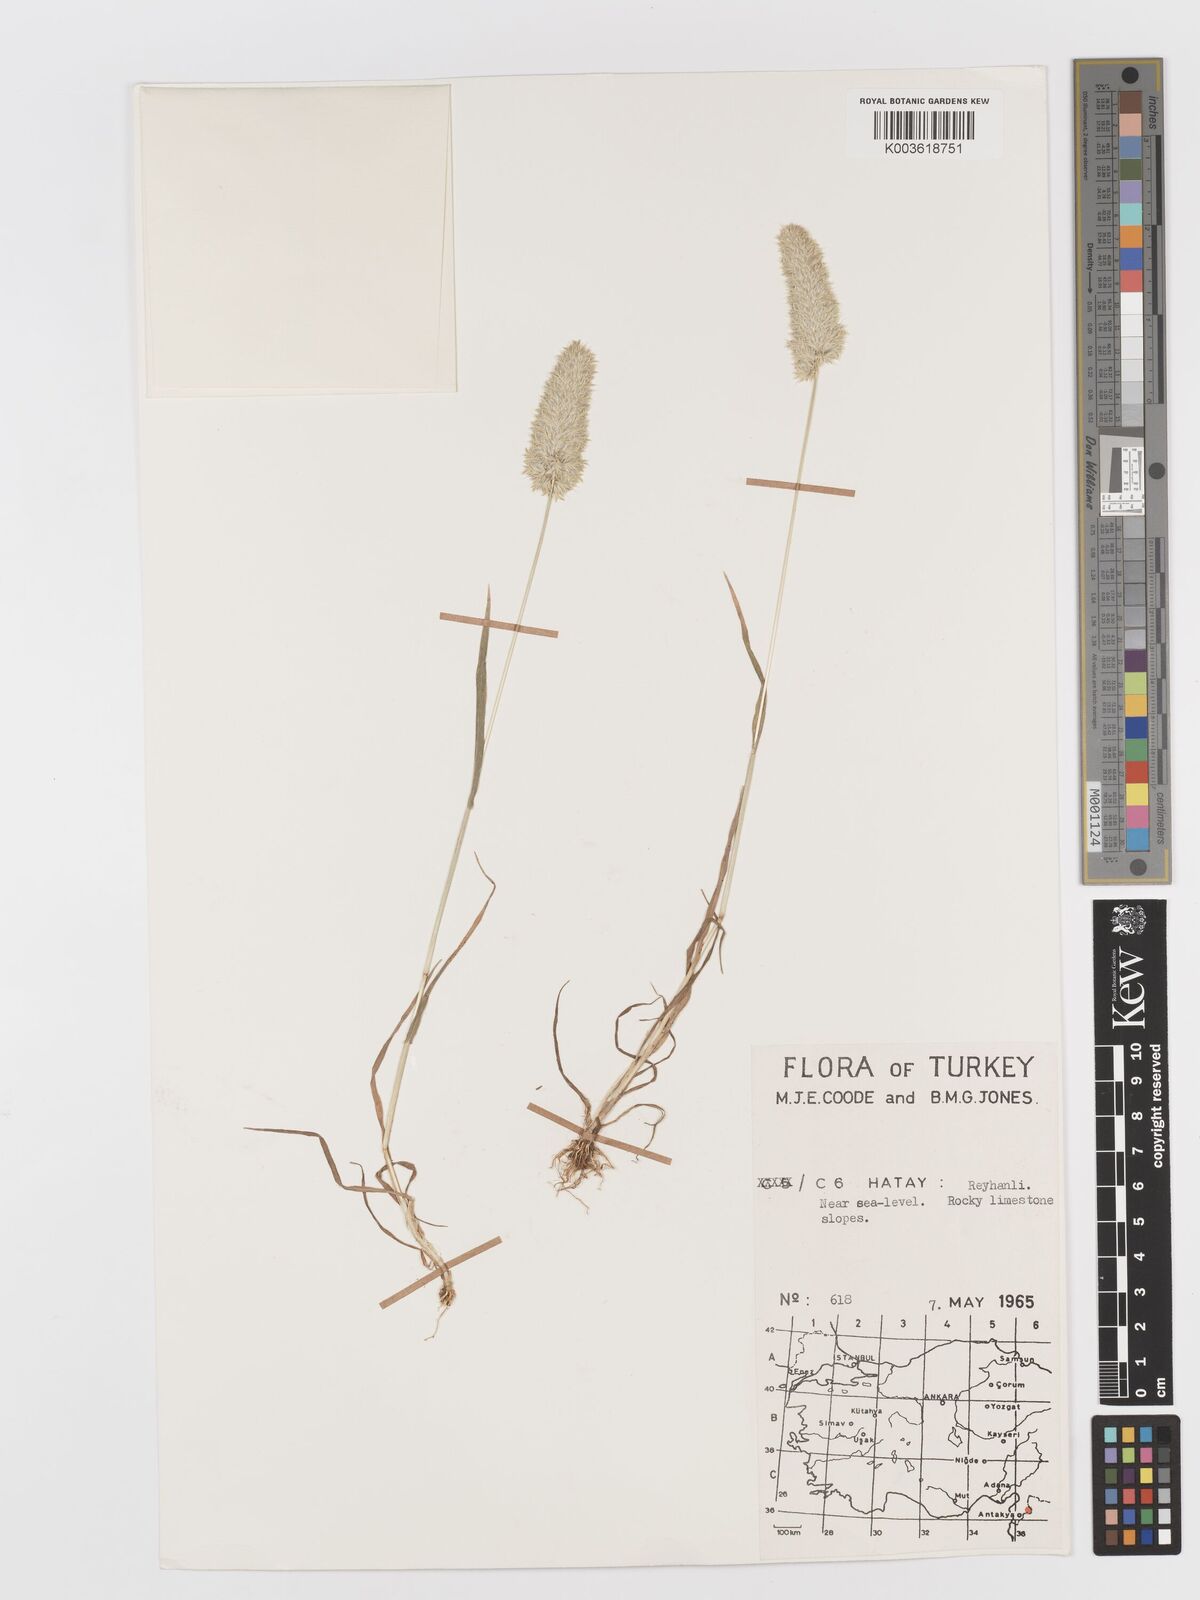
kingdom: Plantae
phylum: Tracheophyta
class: Liliopsida
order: Poales
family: Poaceae
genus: Rostraria
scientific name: Rostraria cristata
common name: Mediterranean hair-grass
